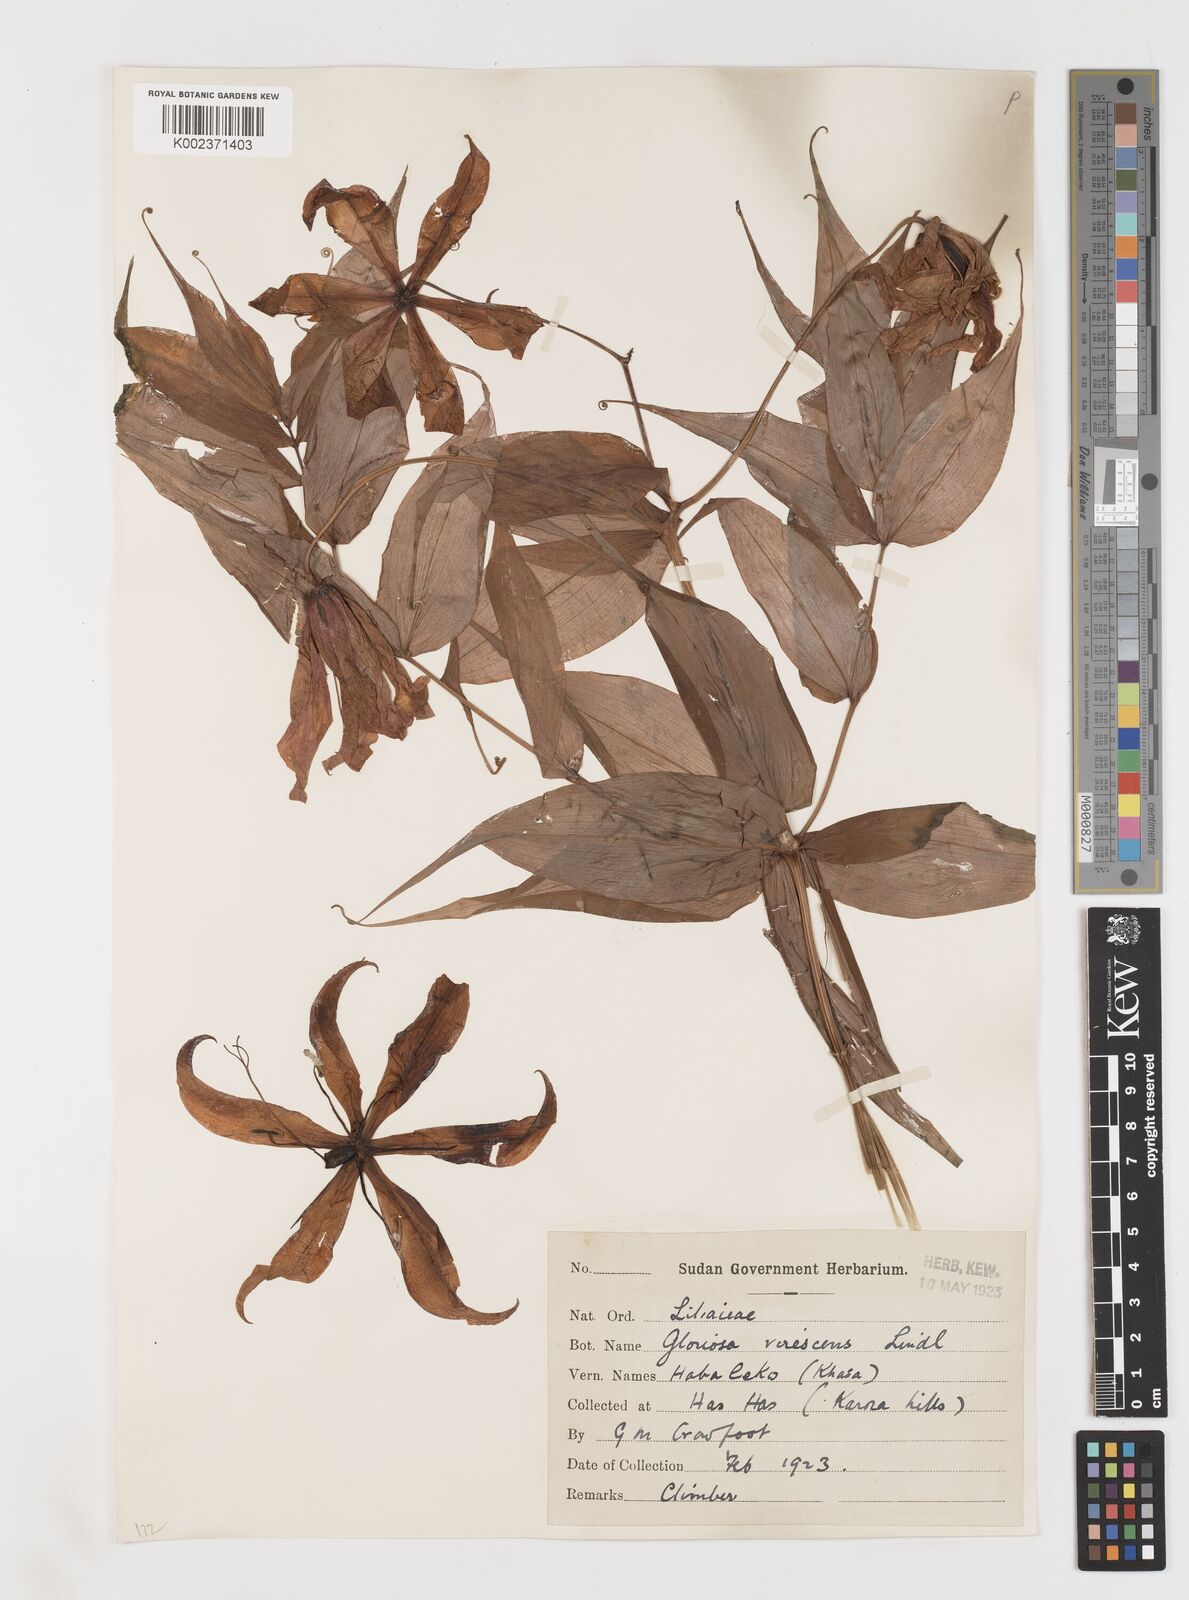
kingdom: Plantae
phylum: Tracheophyta
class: Liliopsida
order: Liliales
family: Colchicaceae
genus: Gloriosa
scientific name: Gloriosa simplex
